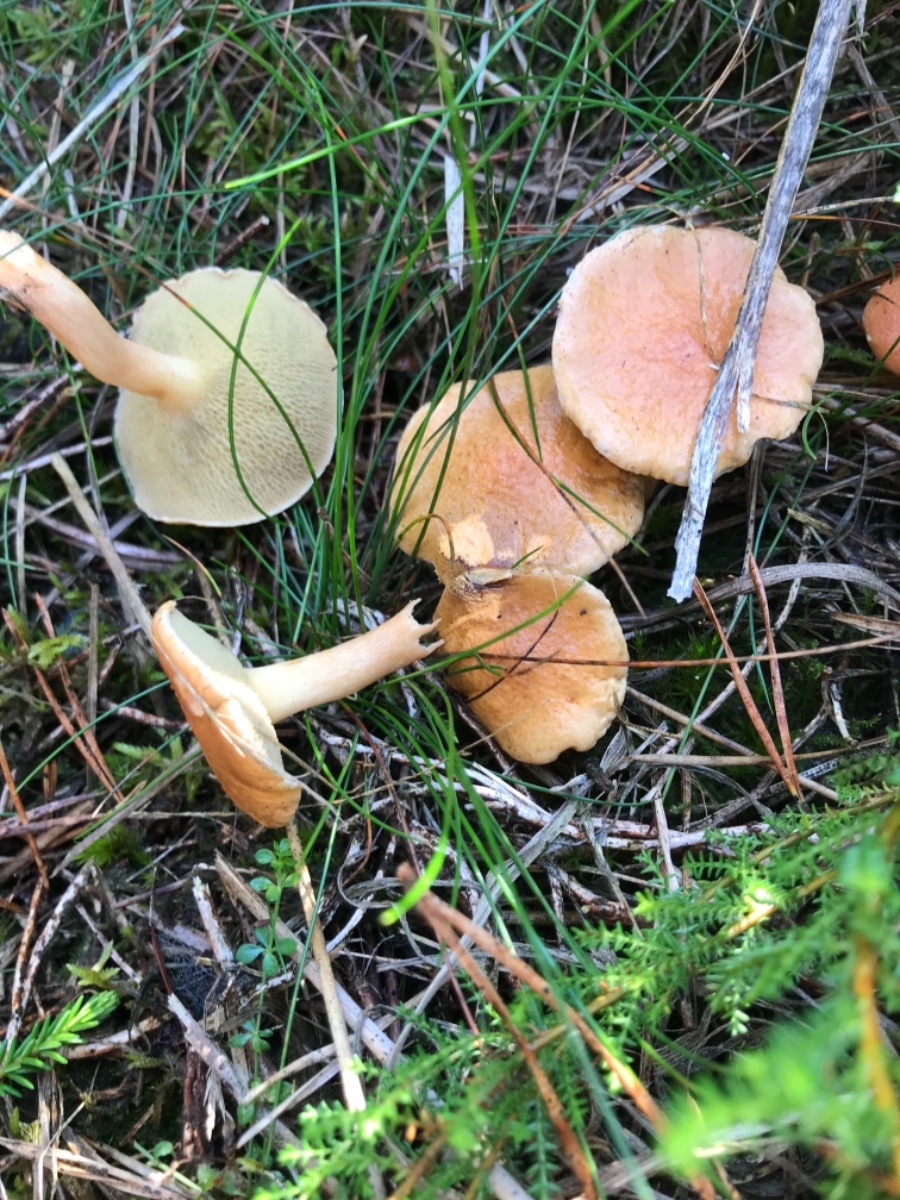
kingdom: Fungi
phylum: Basidiomycota
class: Agaricomycetes
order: Boletales
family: Suillaceae
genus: Suillus
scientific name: Suillus bovinus
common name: grovporet slimrørhat
